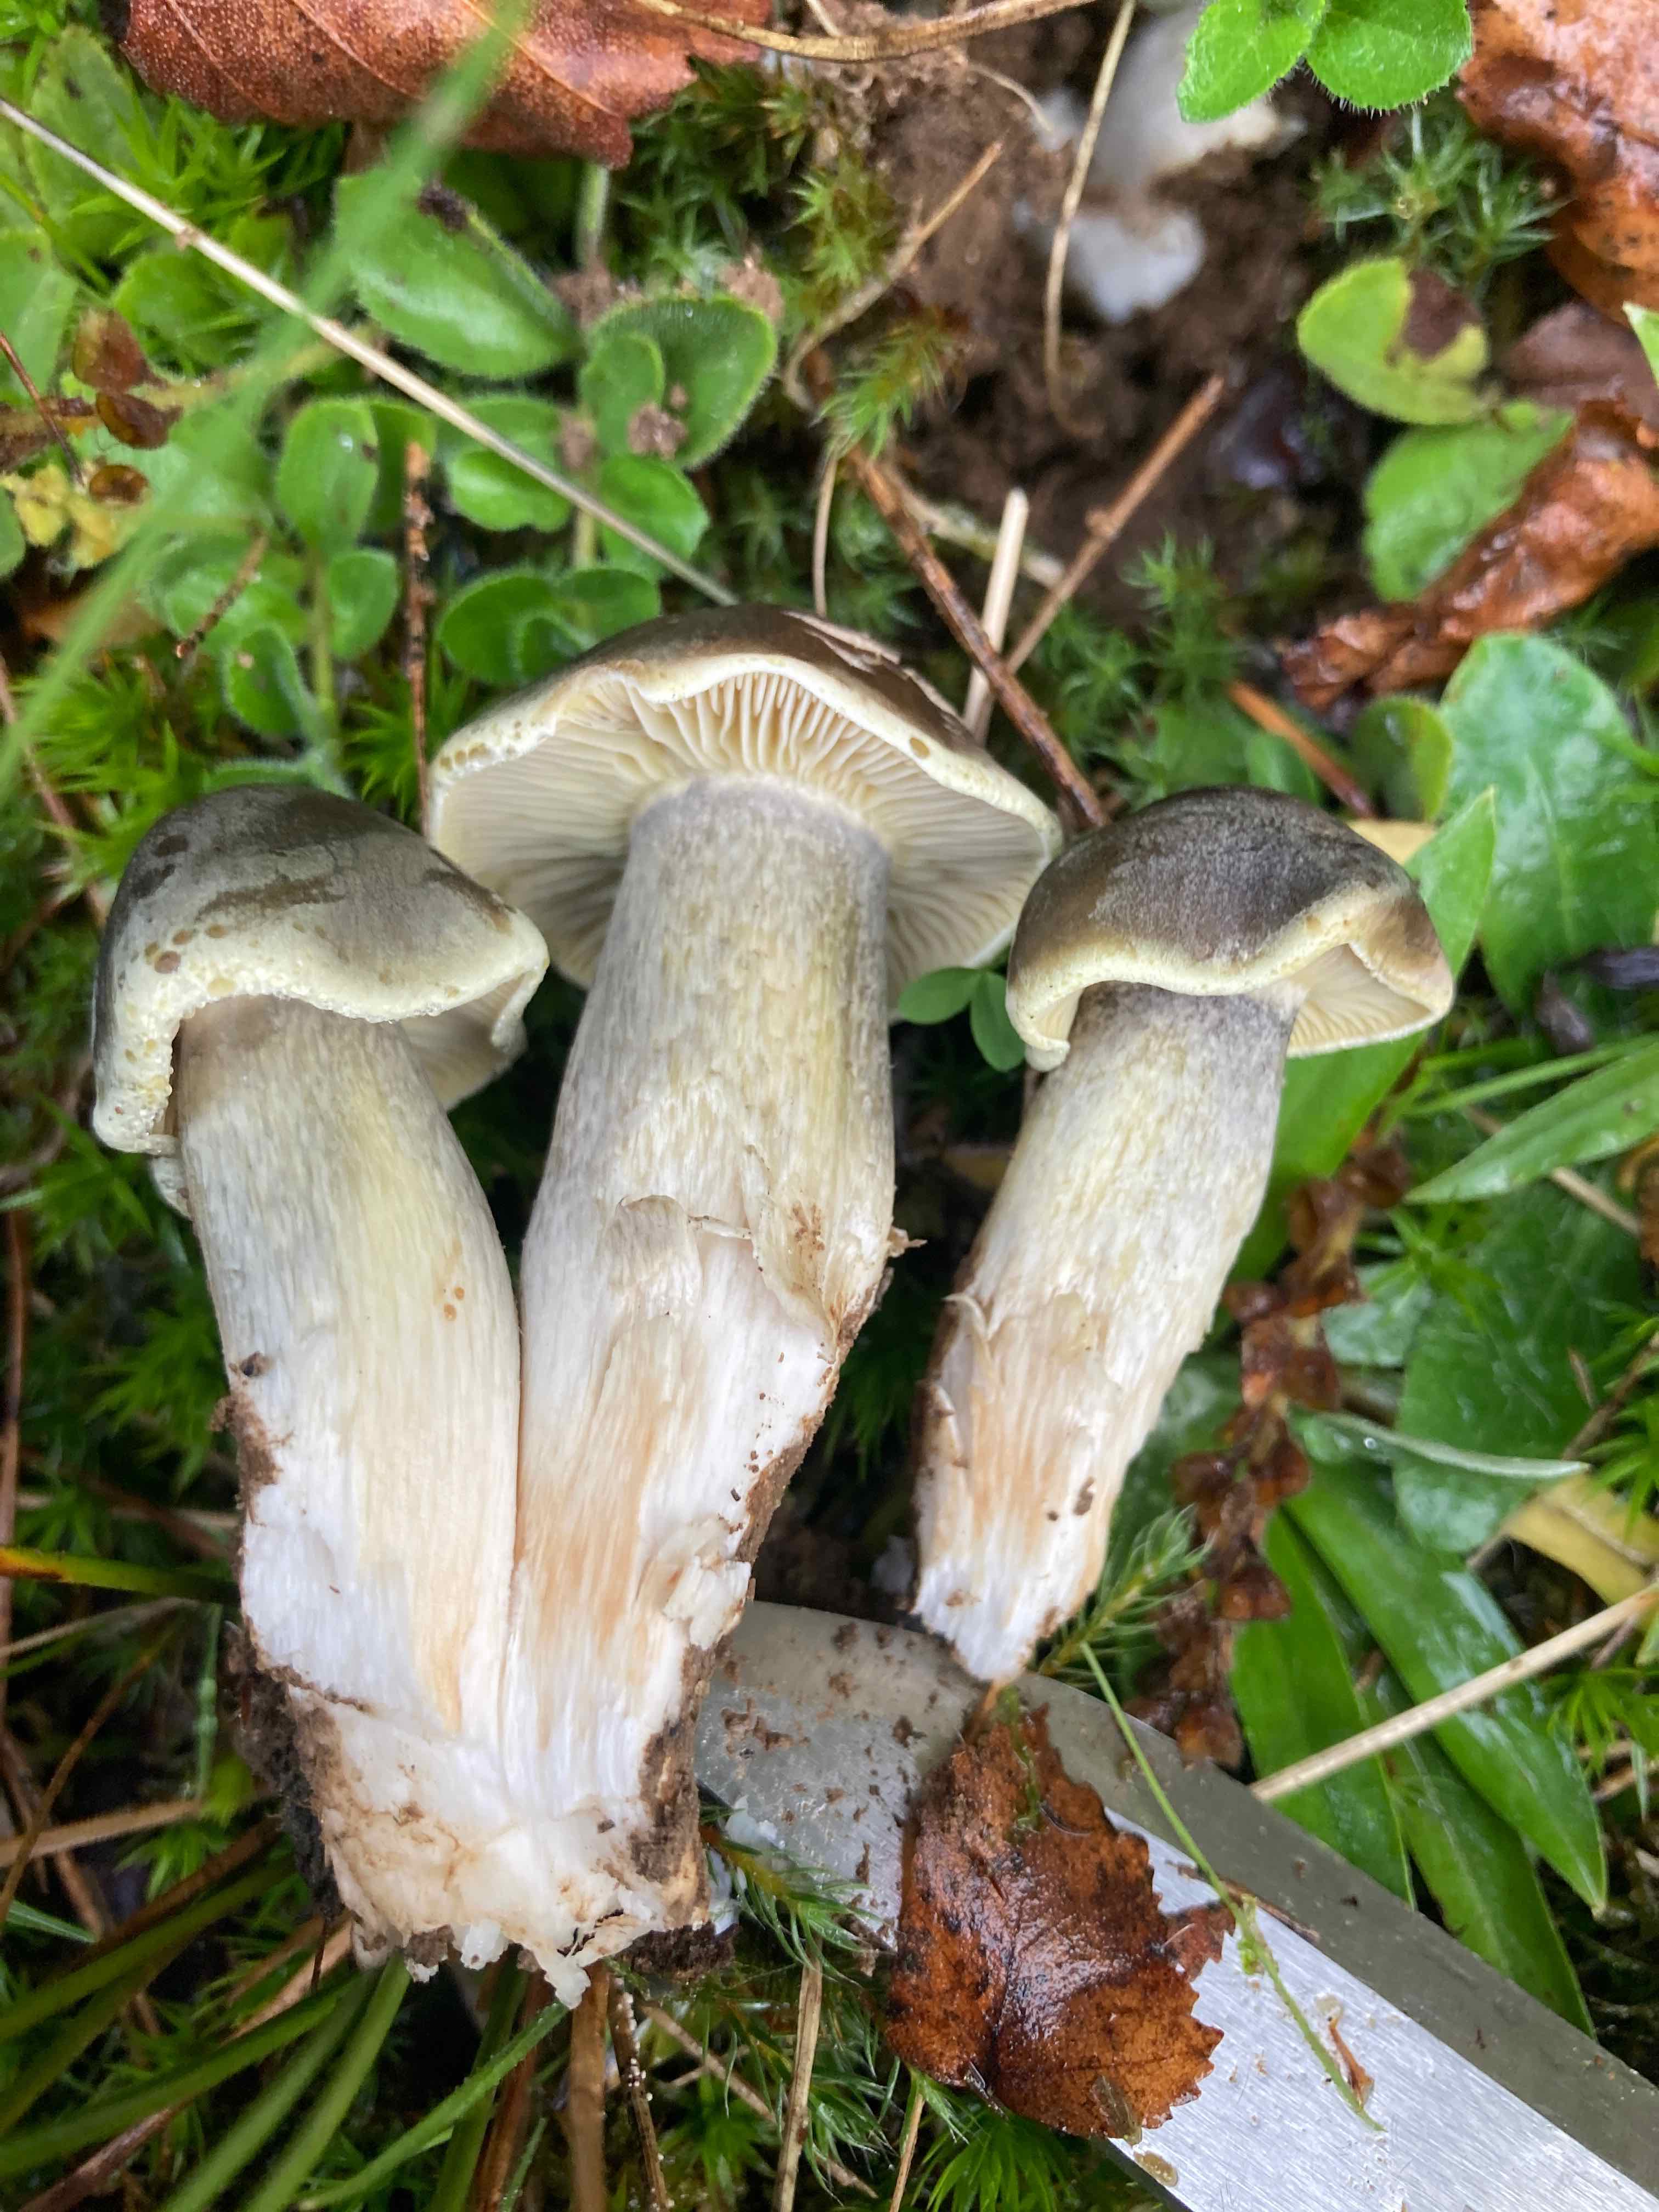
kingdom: Fungi
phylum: Basidiomycota
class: Agaricomycetes
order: Agaricales
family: Tricholomataceae
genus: Tricholoma
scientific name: Tricholoma saponaceum
